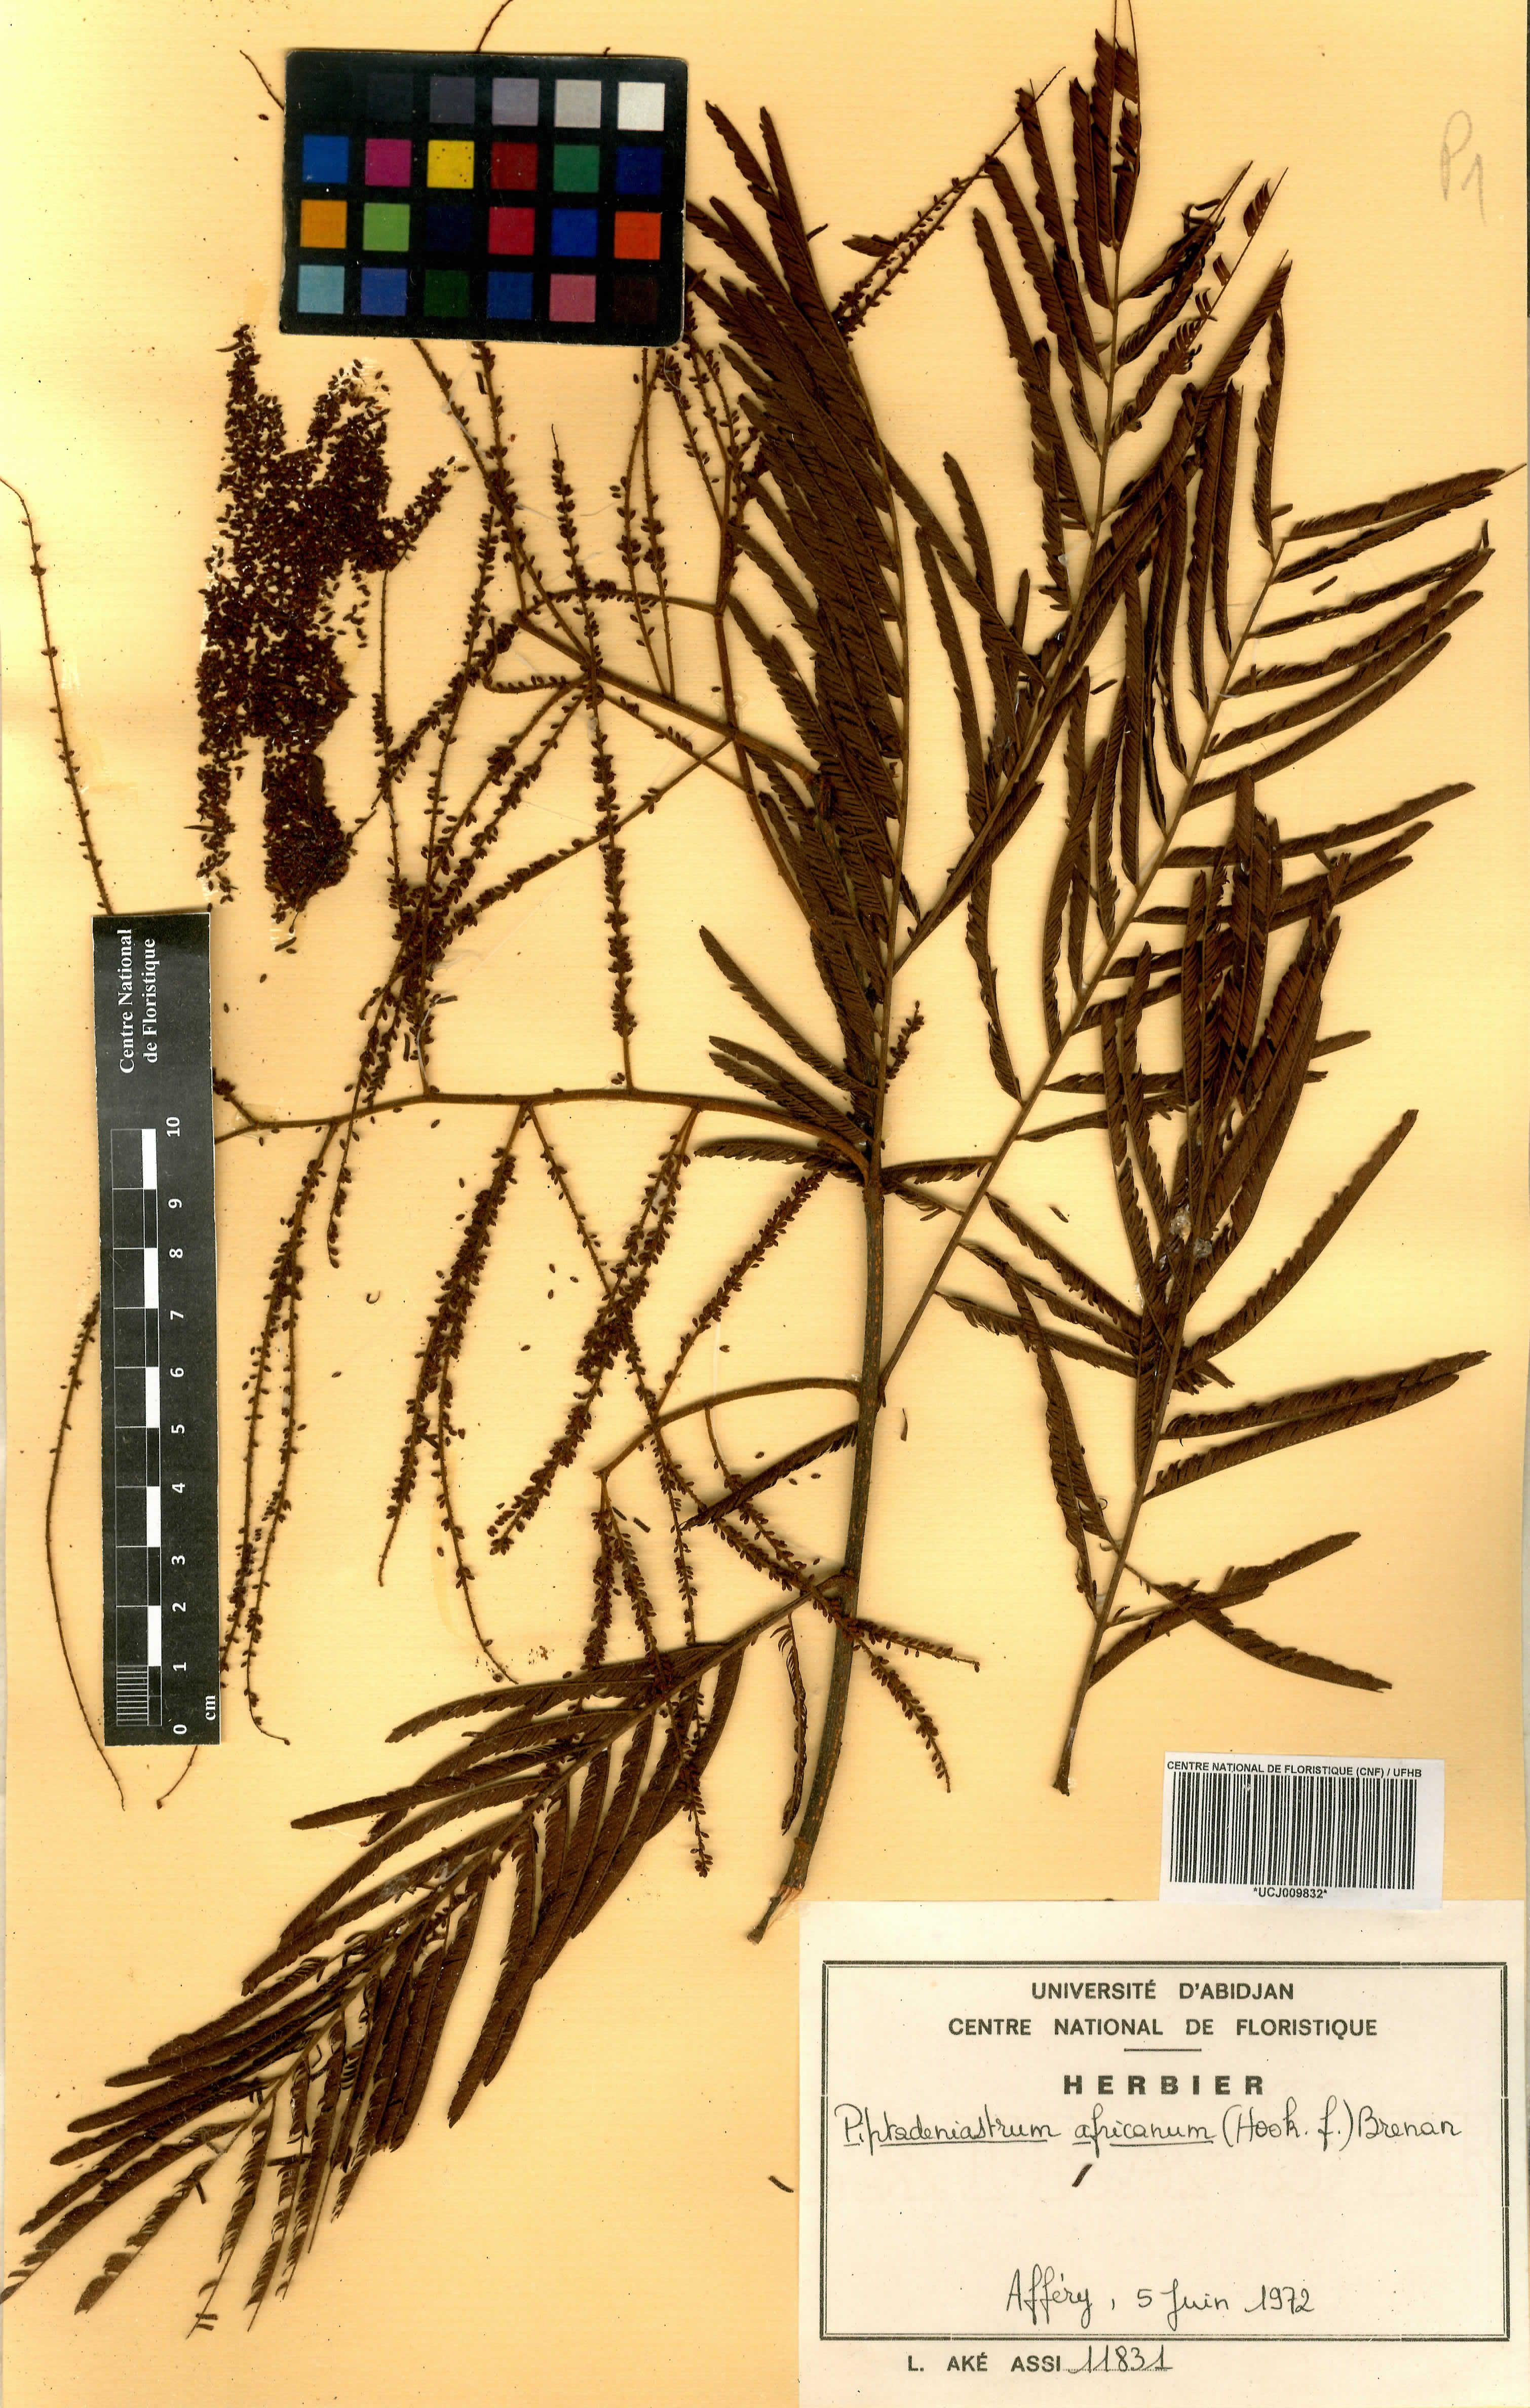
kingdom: Plantae
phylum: Tracheophyta
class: Magnoliopsida
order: Fabales
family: Fabaceae
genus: Piptadeniastrum
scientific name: Piptadeniastrum africanum
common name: African greenheart
